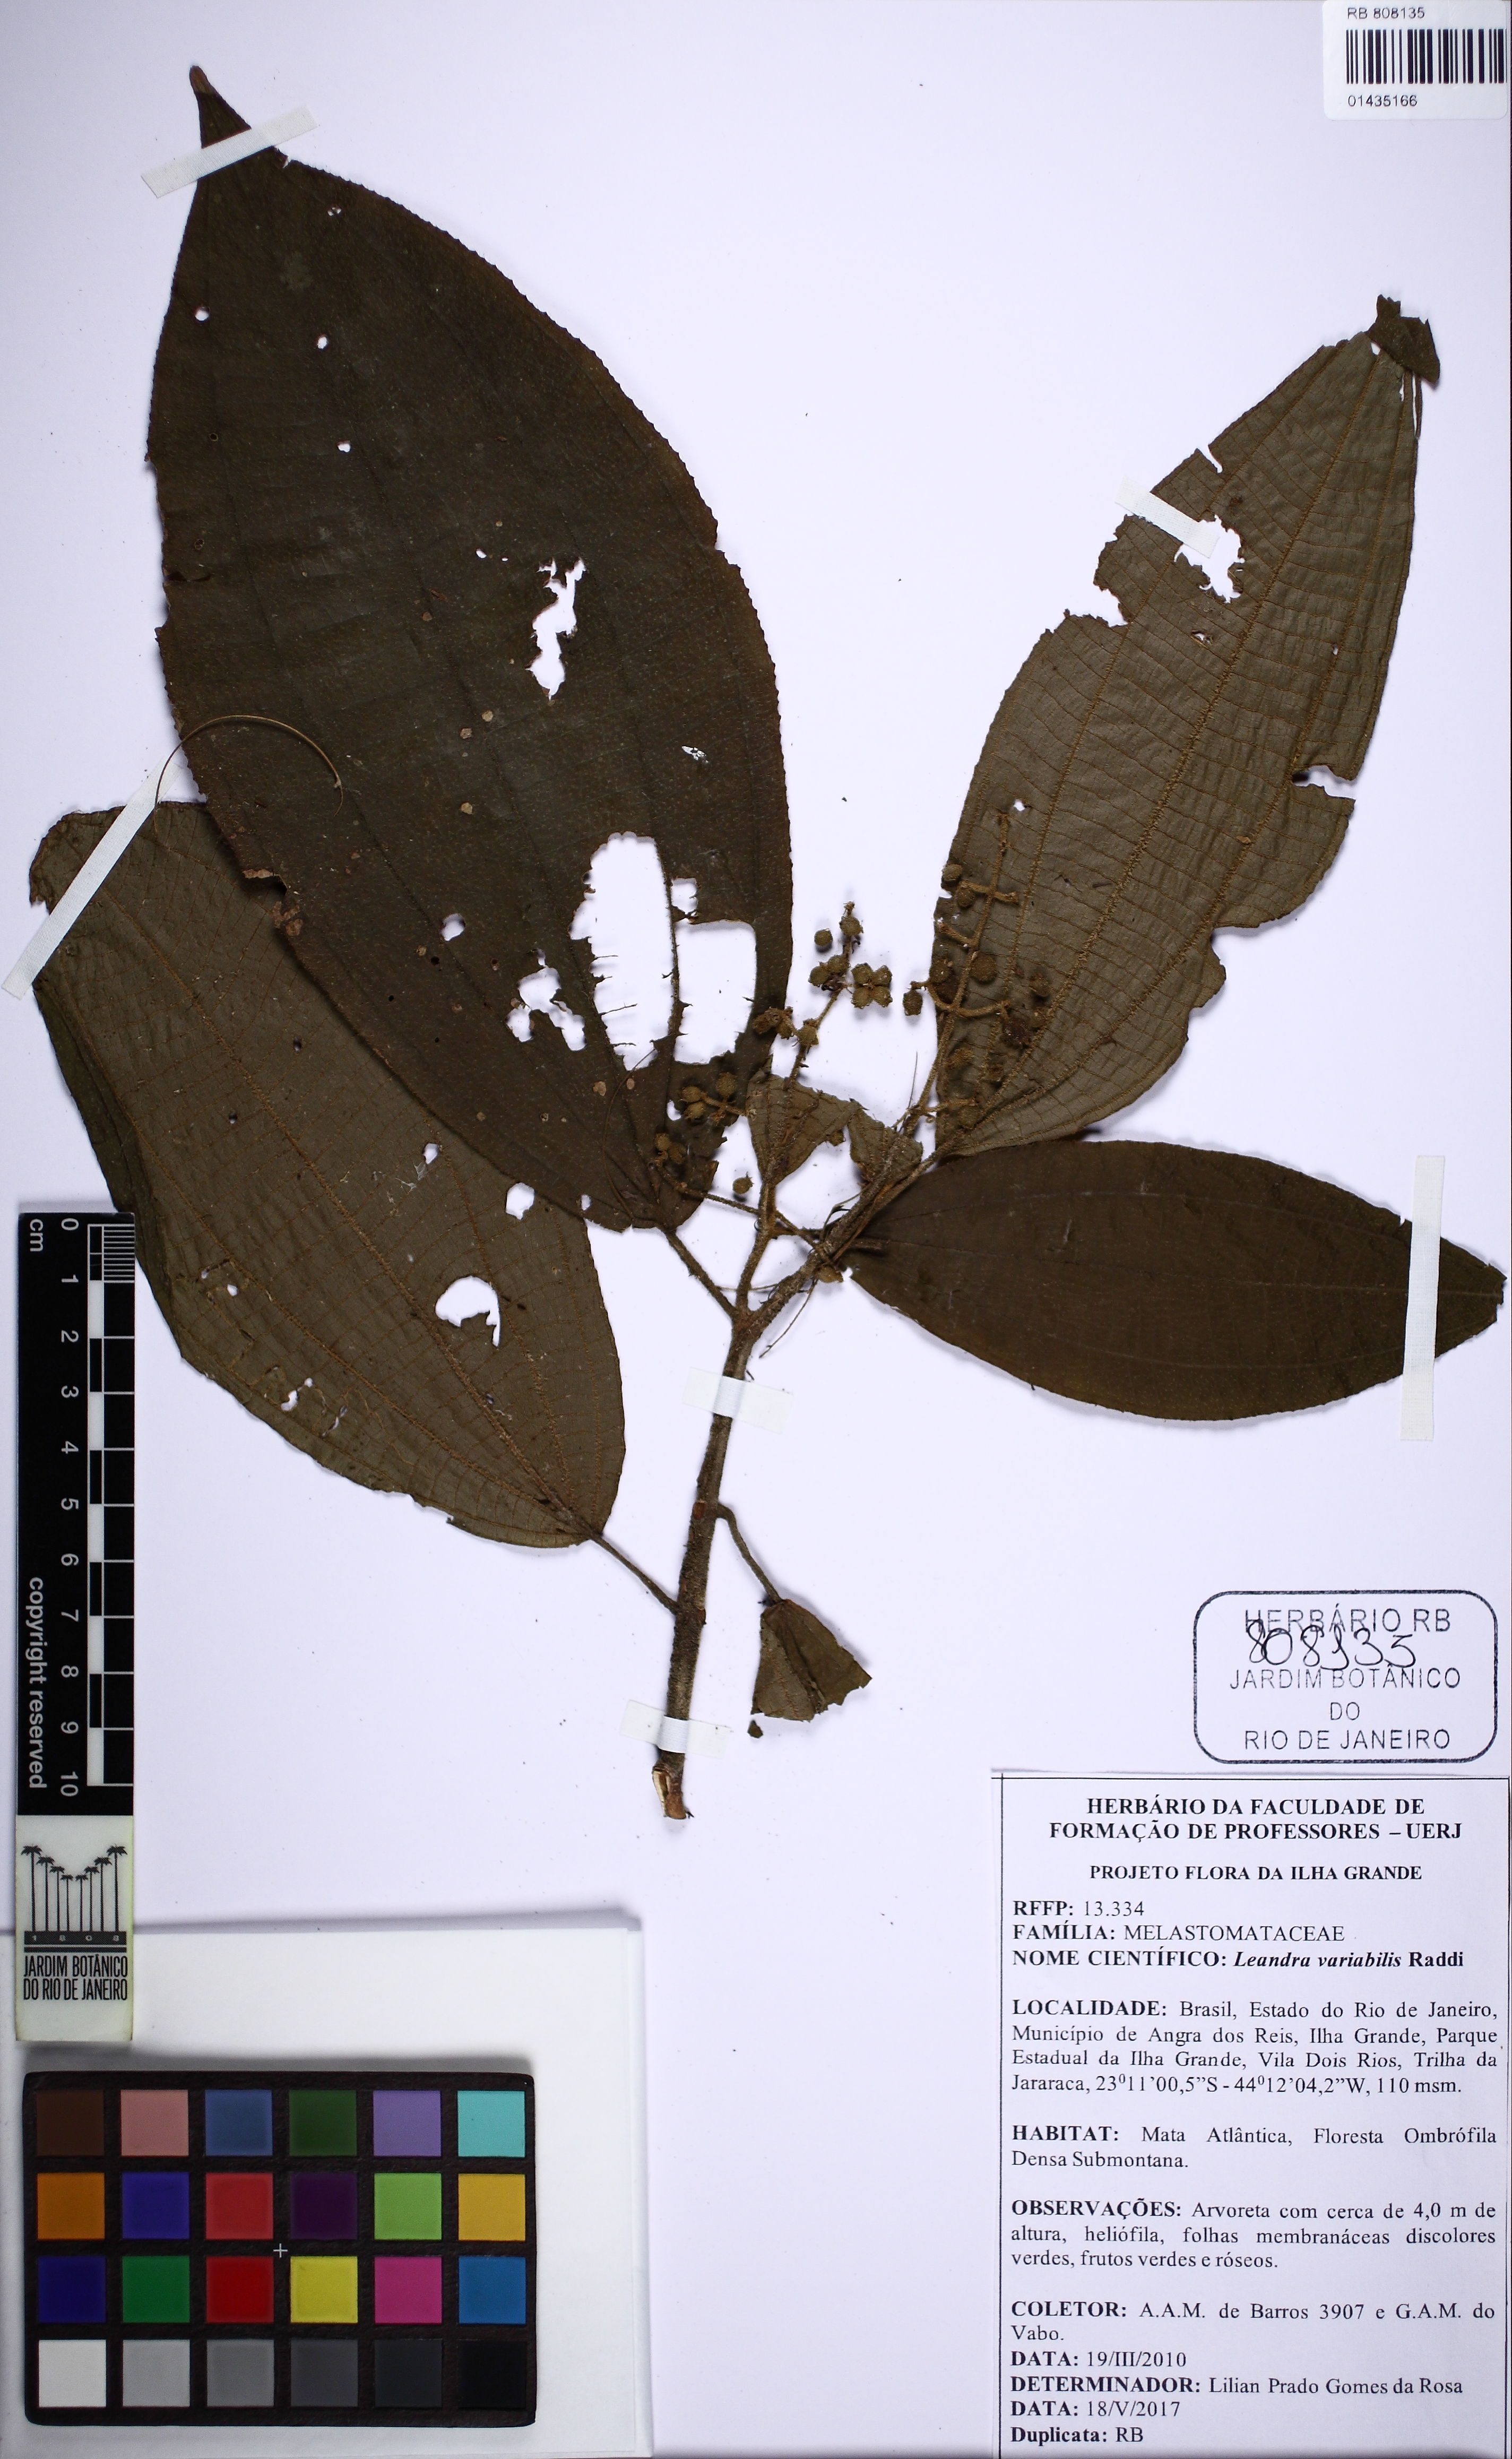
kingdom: Plantae
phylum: Tracheophyta
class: Magnoliopsida
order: Myrtales
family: Melastomataceae
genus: Miconia
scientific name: Miconia dasytricha
